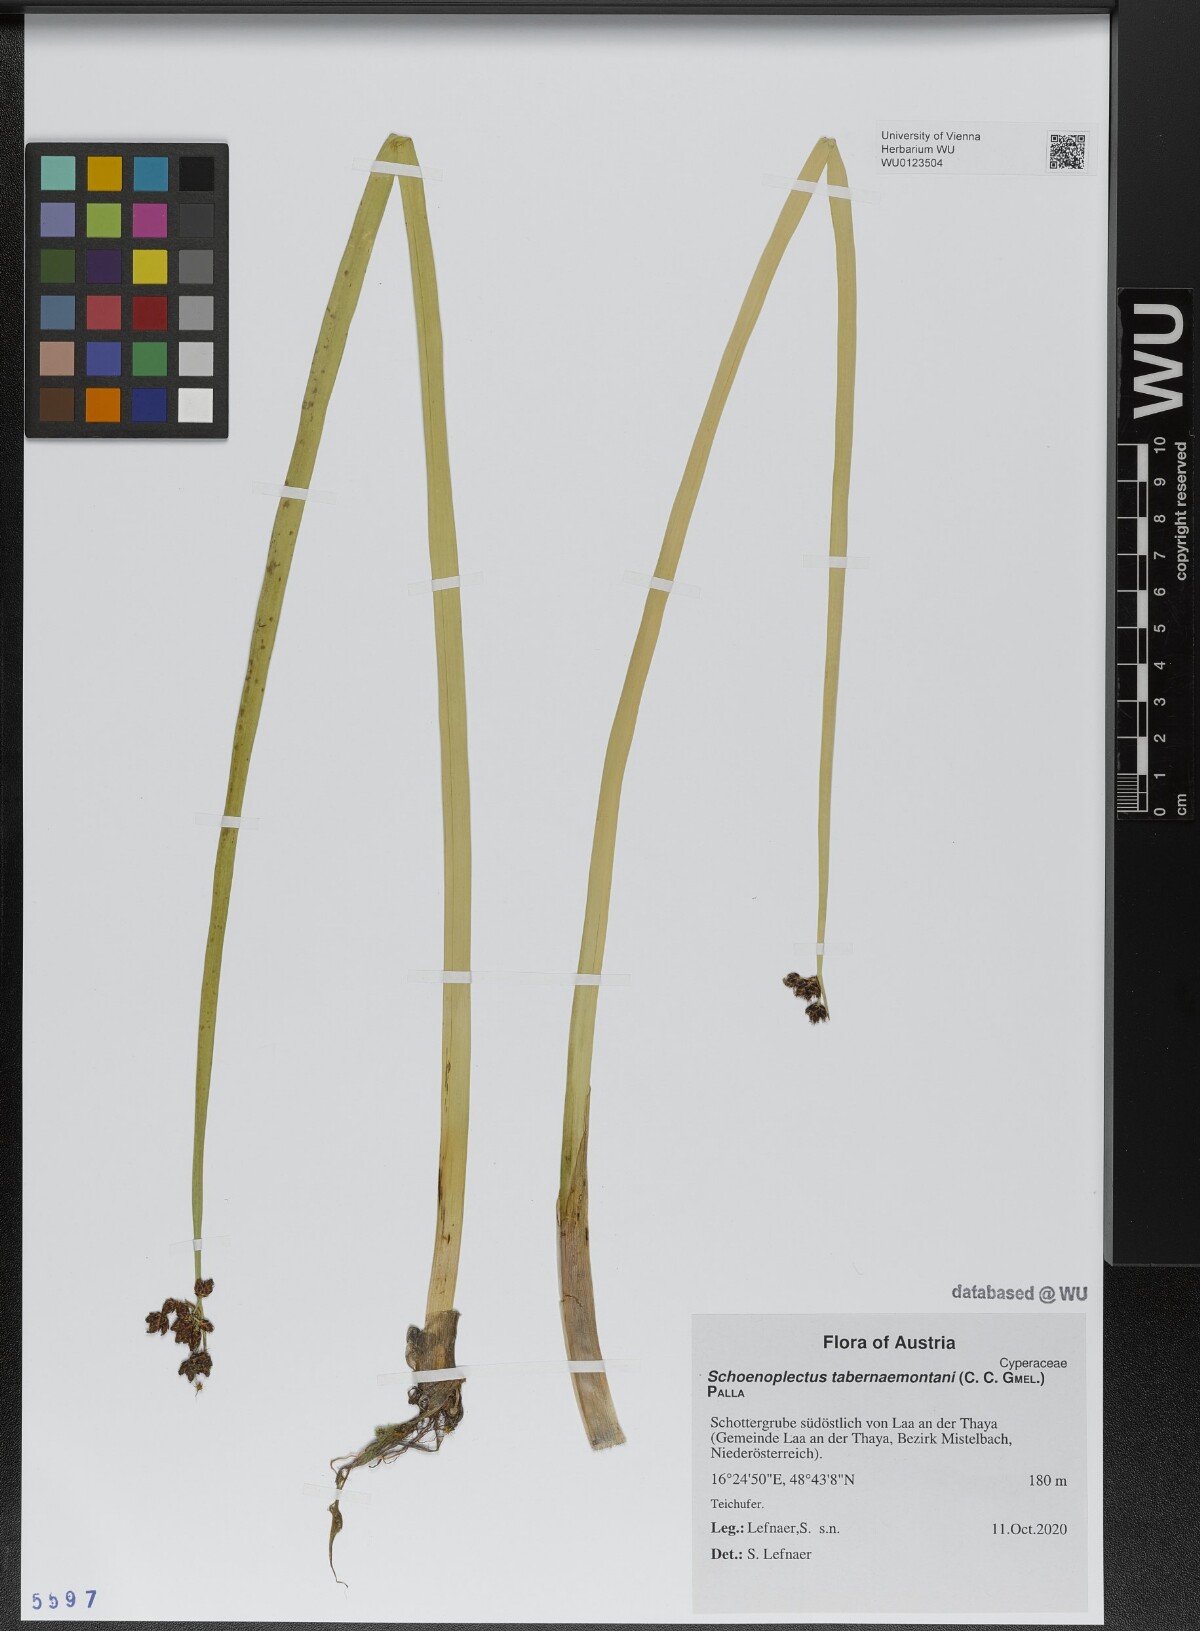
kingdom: Plantae
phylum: Tracheophyta
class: Liliopsida
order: Poales
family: Cyperaceae
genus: Schoenoplectus
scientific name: Schoenoplectus tabernaemontani
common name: Grey club-rush
